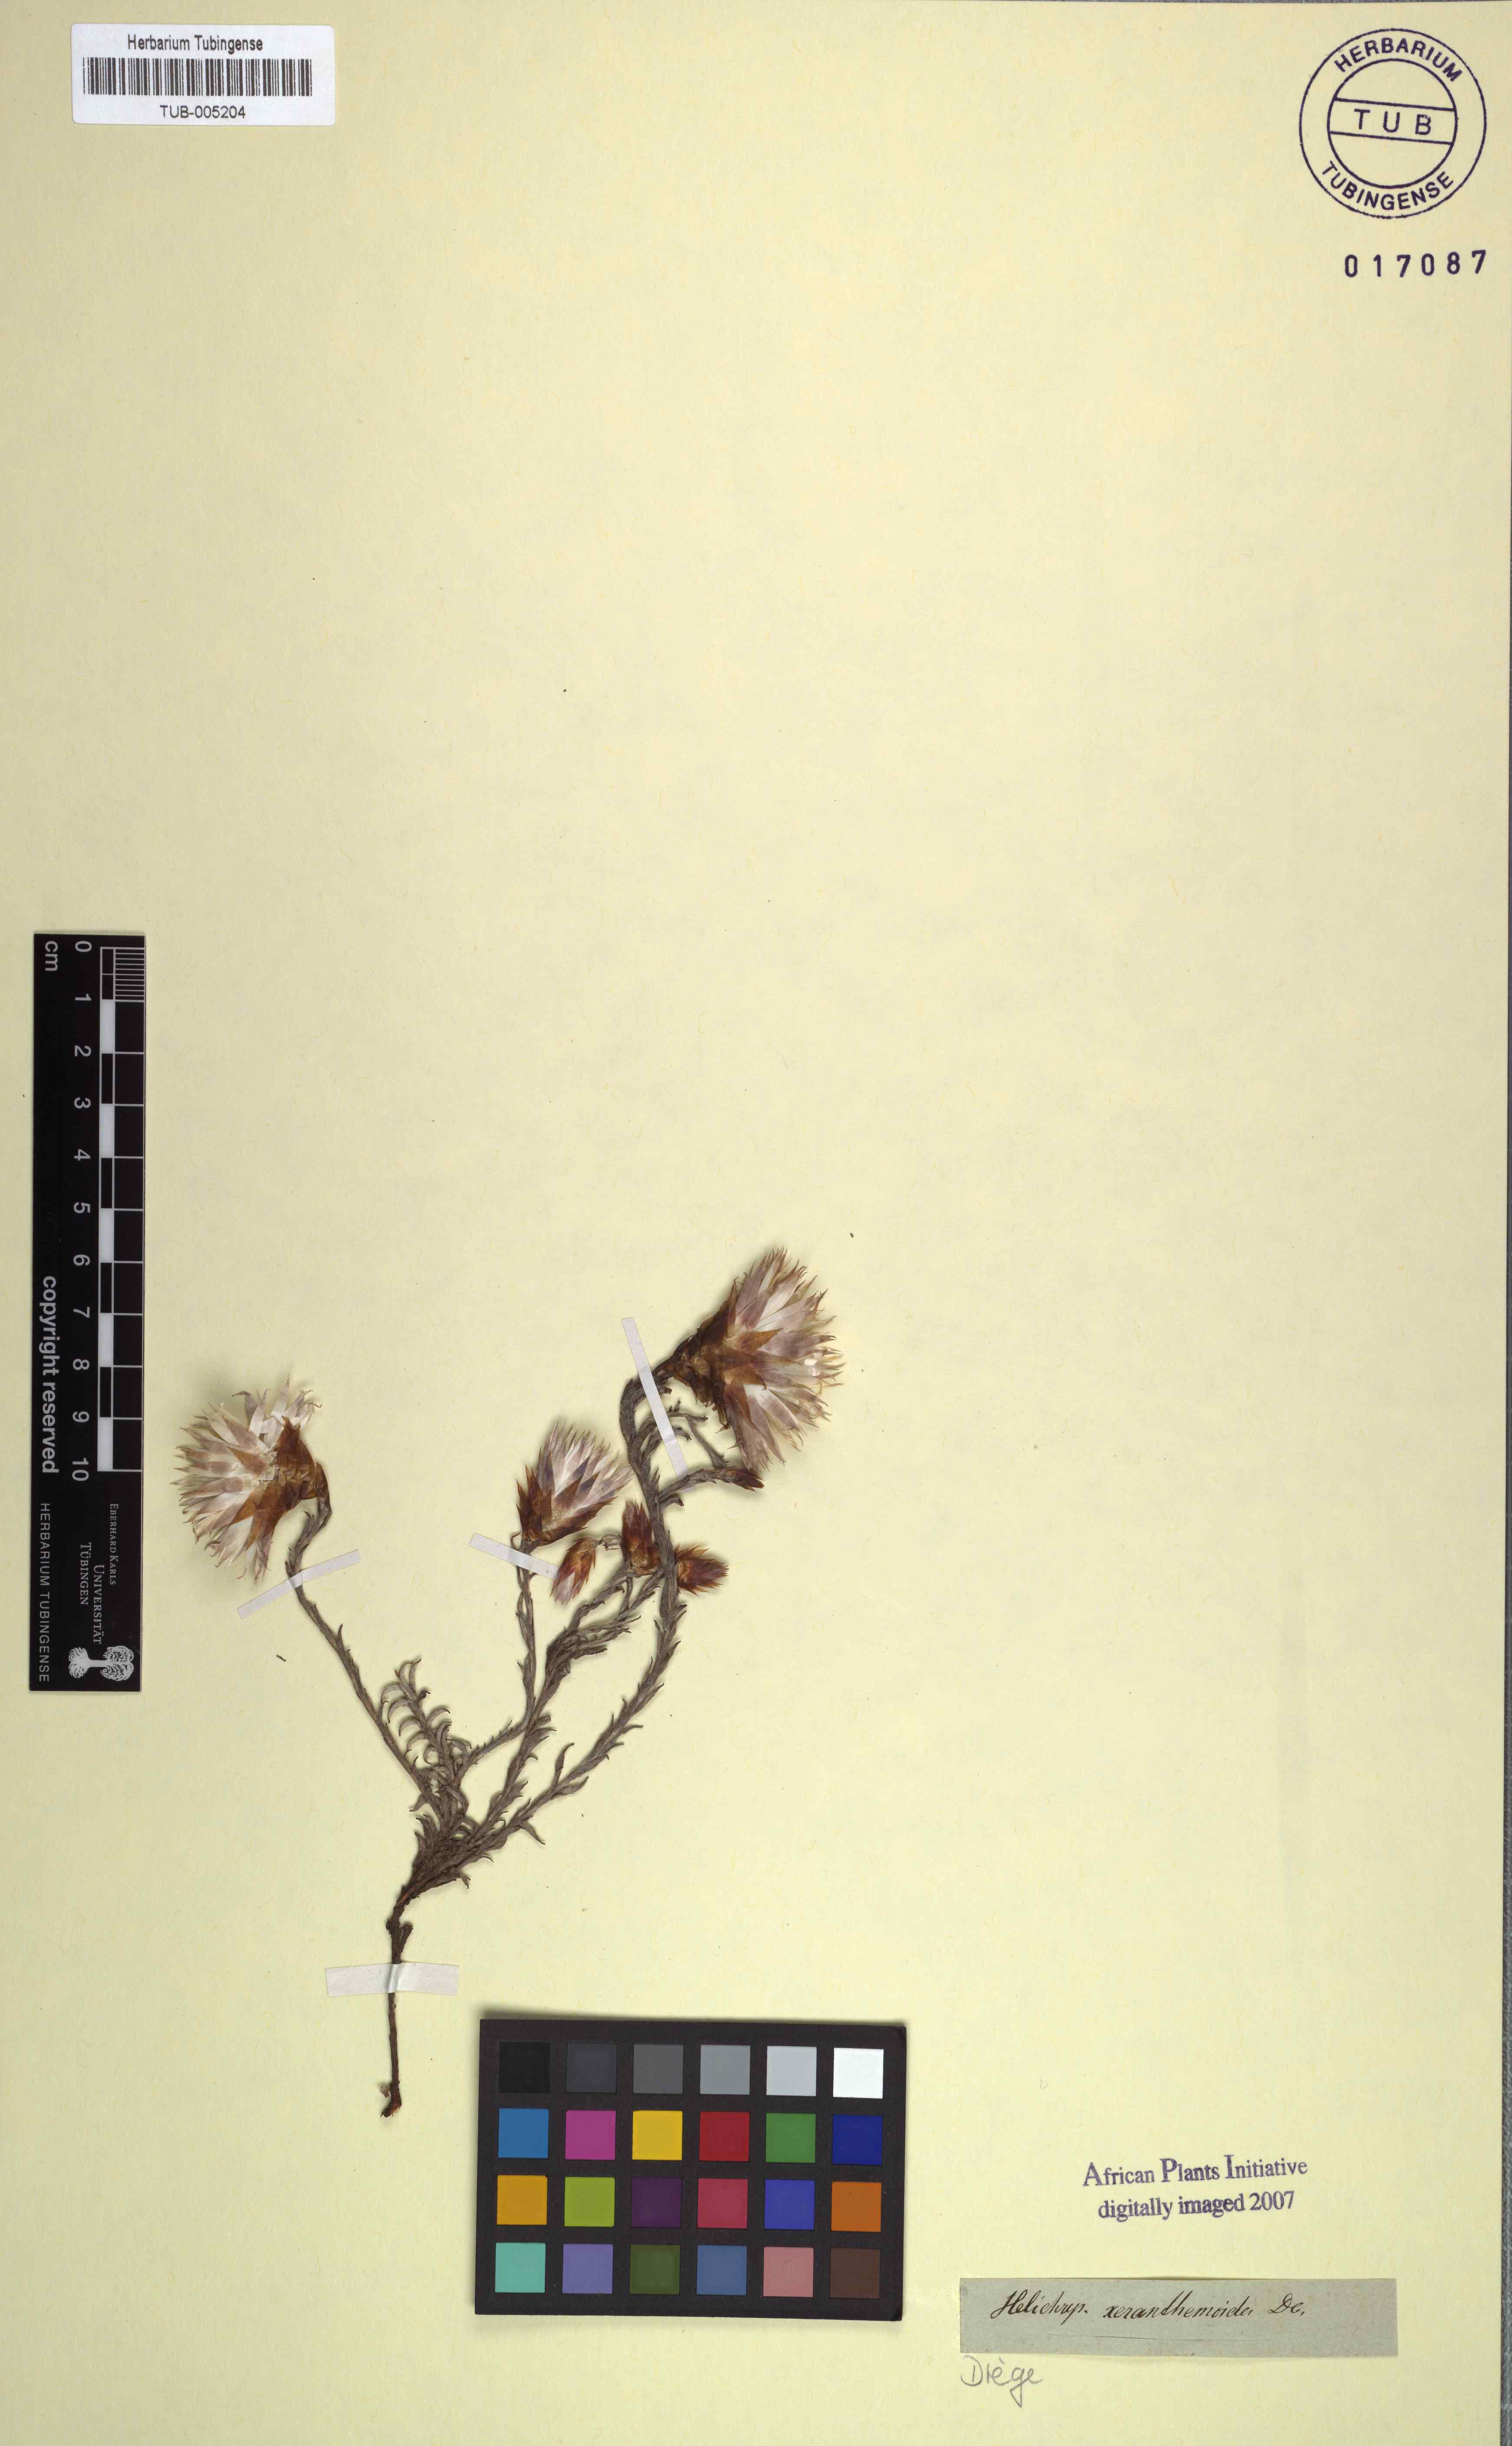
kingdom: Plantae
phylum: Tracheophyta
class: Magnoliopsida
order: Asterales
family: Asteraceae
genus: Helichrysum
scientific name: Helichrysum lancifolium
